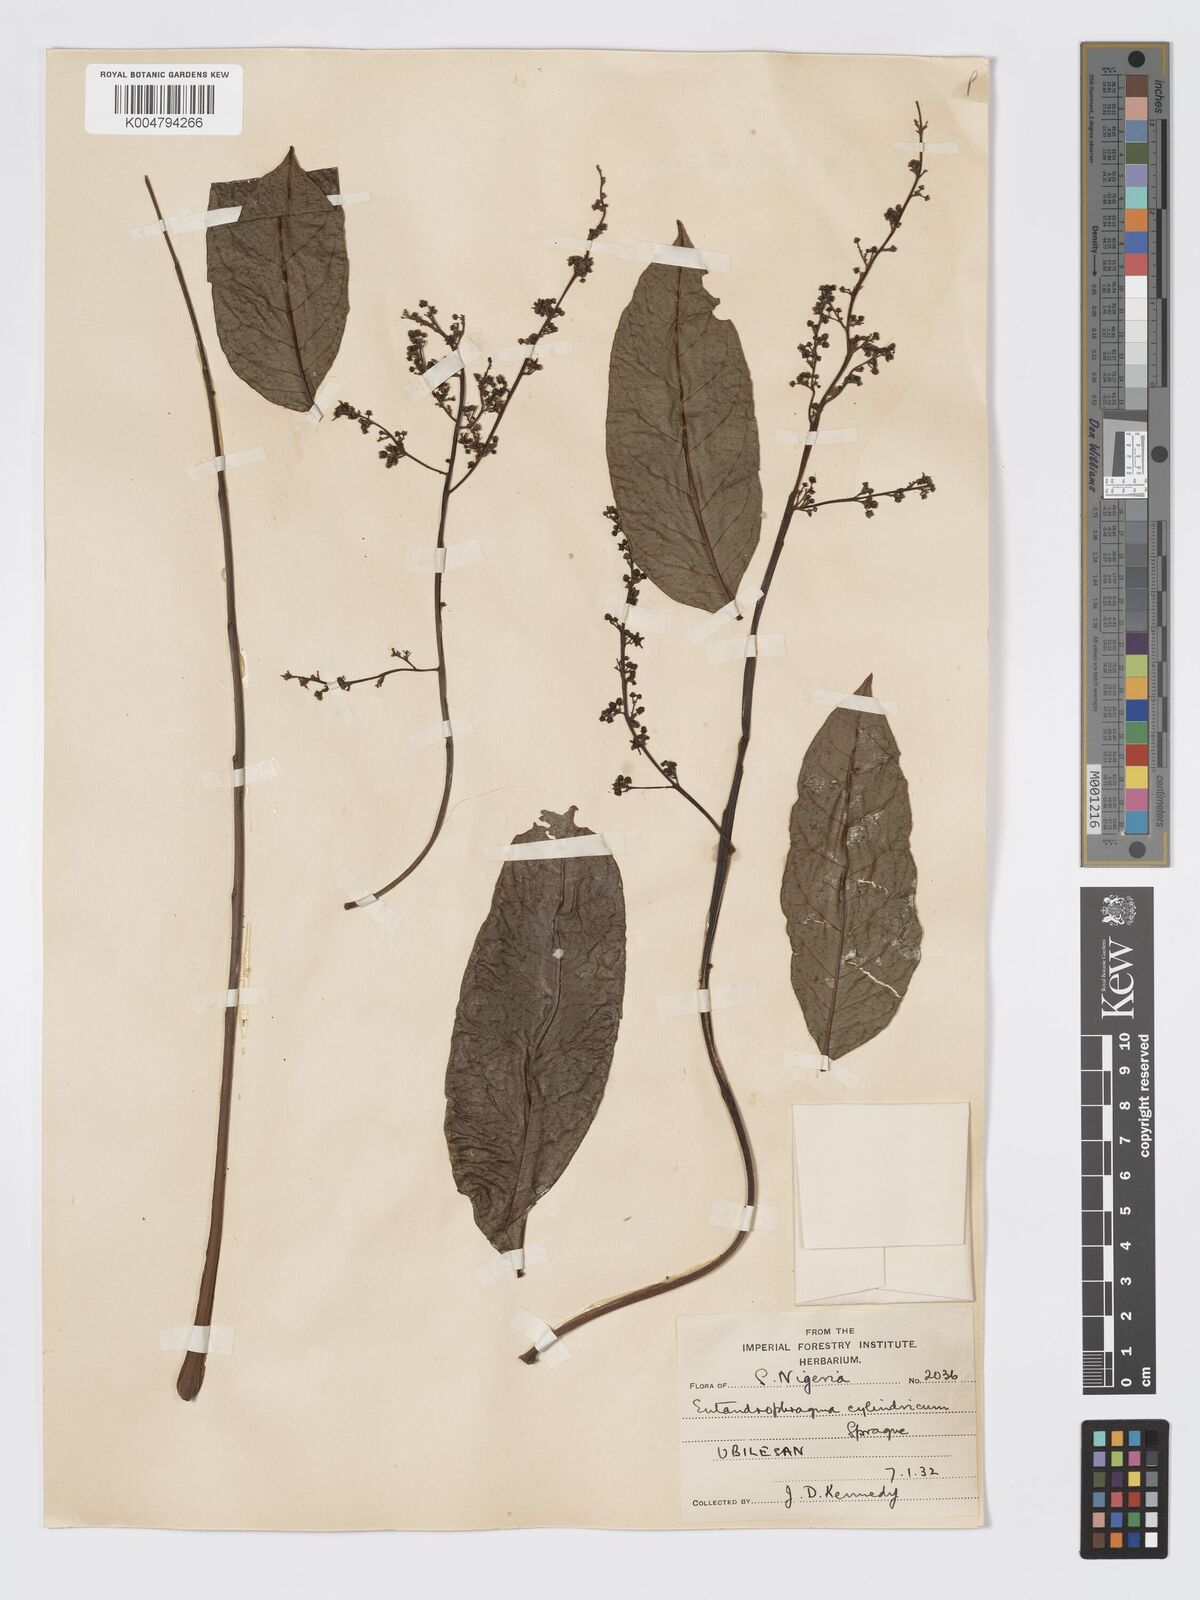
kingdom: Plantae
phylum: Tracheophyta
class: Magnoliopsida
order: Sapindales
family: Meliaceae
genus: Entandrophragma
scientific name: Entandrophragma cylindricum
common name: Sapele
